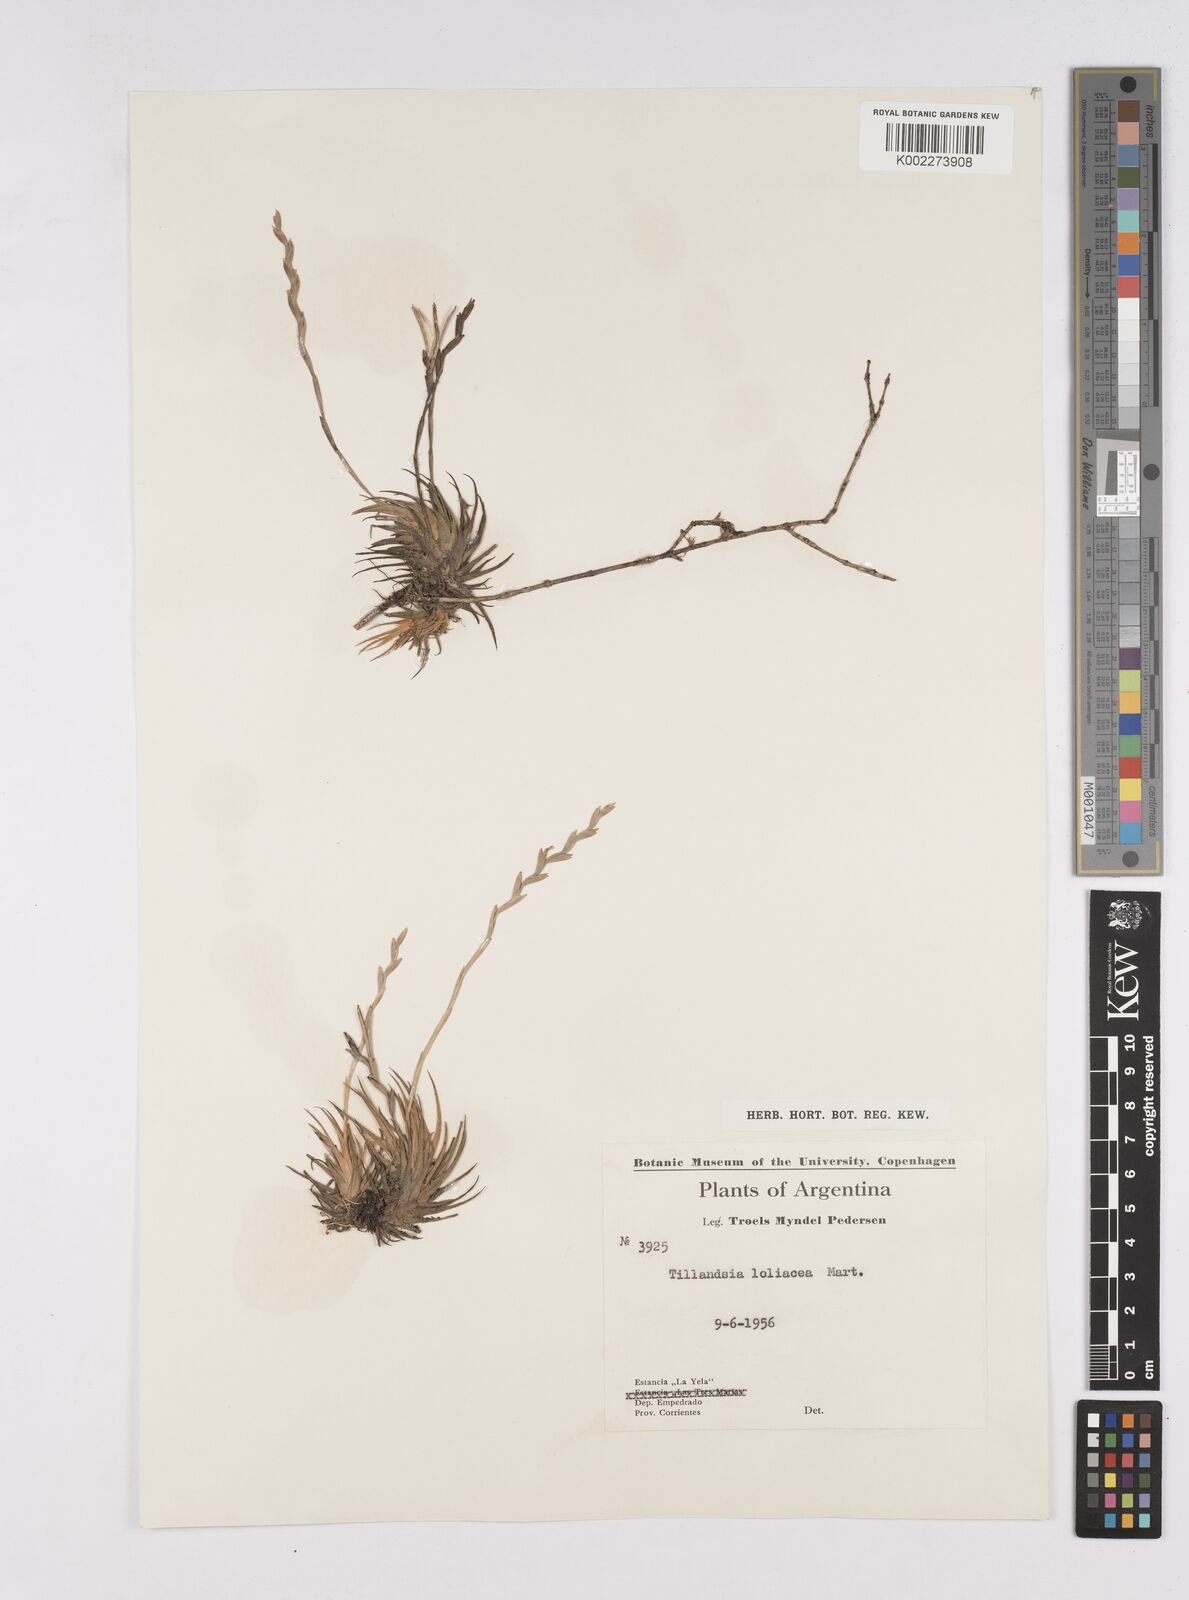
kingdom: Plantae
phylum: Tracheophyta
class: Liliopsida
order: Poales
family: Bromeliaceae
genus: Tillandsia
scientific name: Tillandsia loliacea
